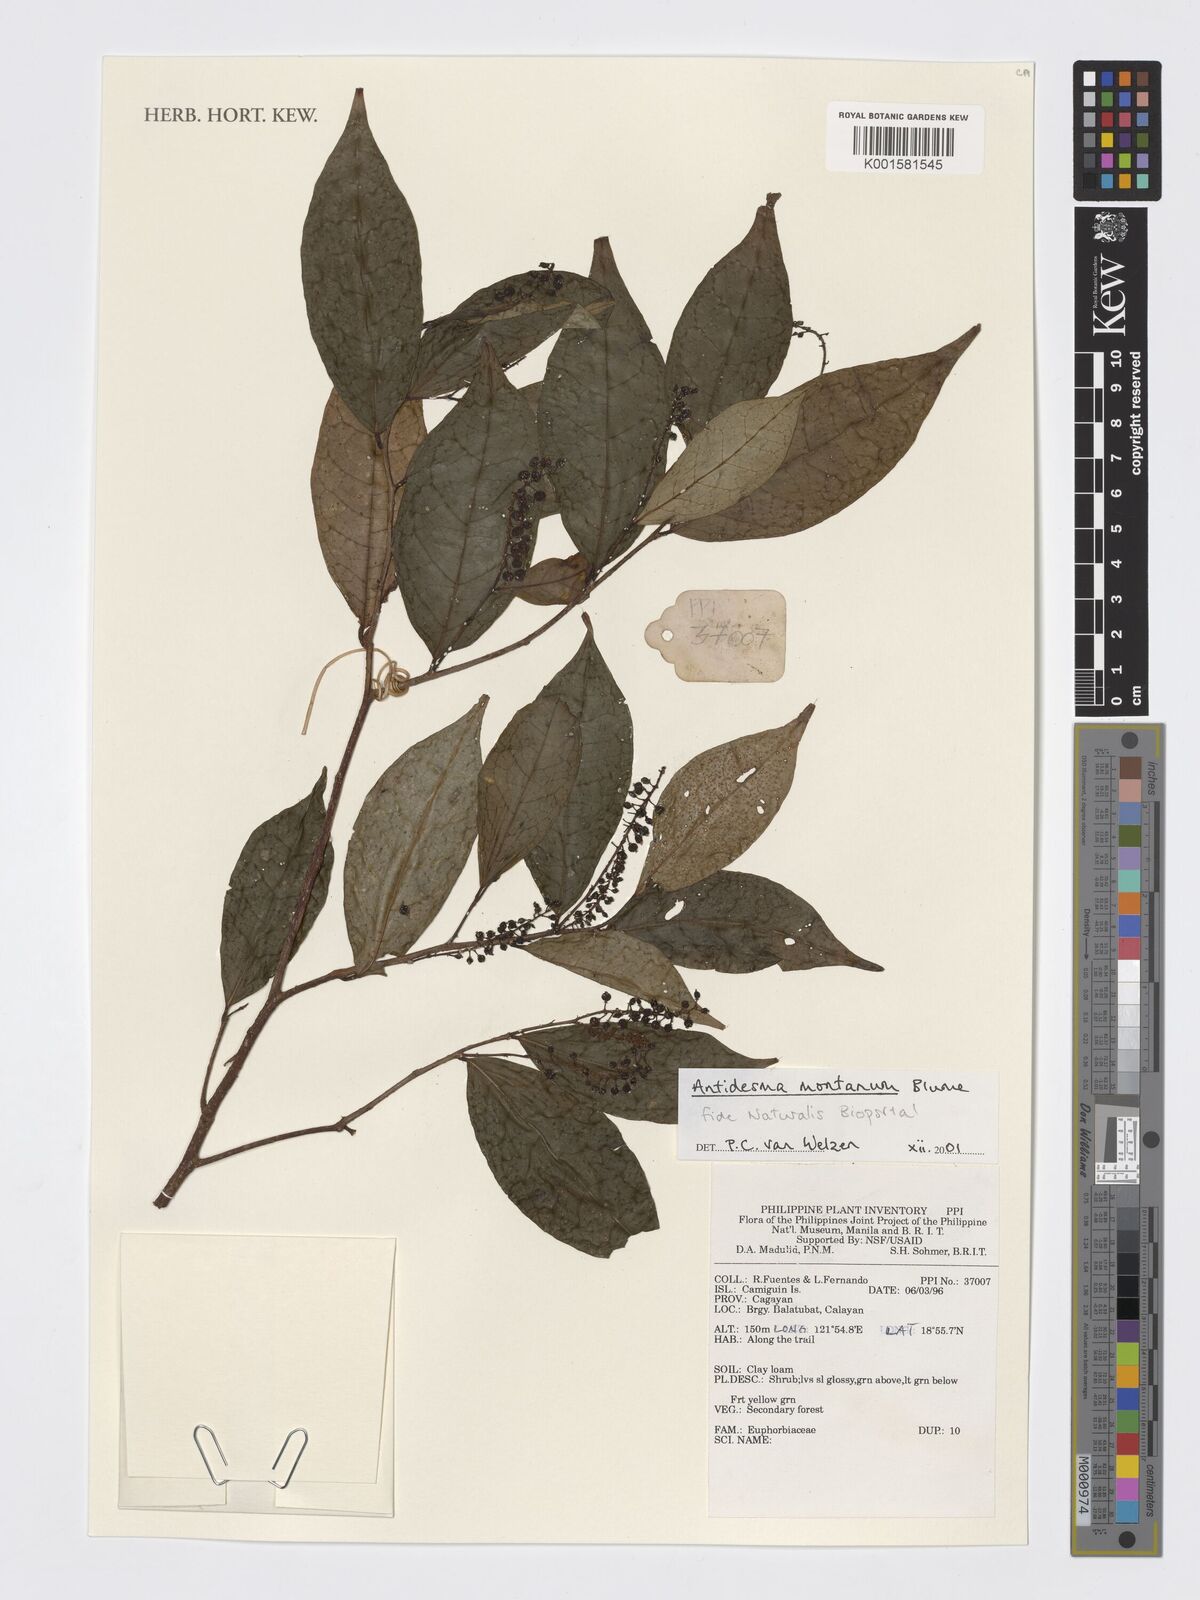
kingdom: Plantae
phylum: Tracheophyta
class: Magnoliopsida
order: Malpighiales
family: Phyllanthaceae
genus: Antidesma
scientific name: Antidesma montanum
